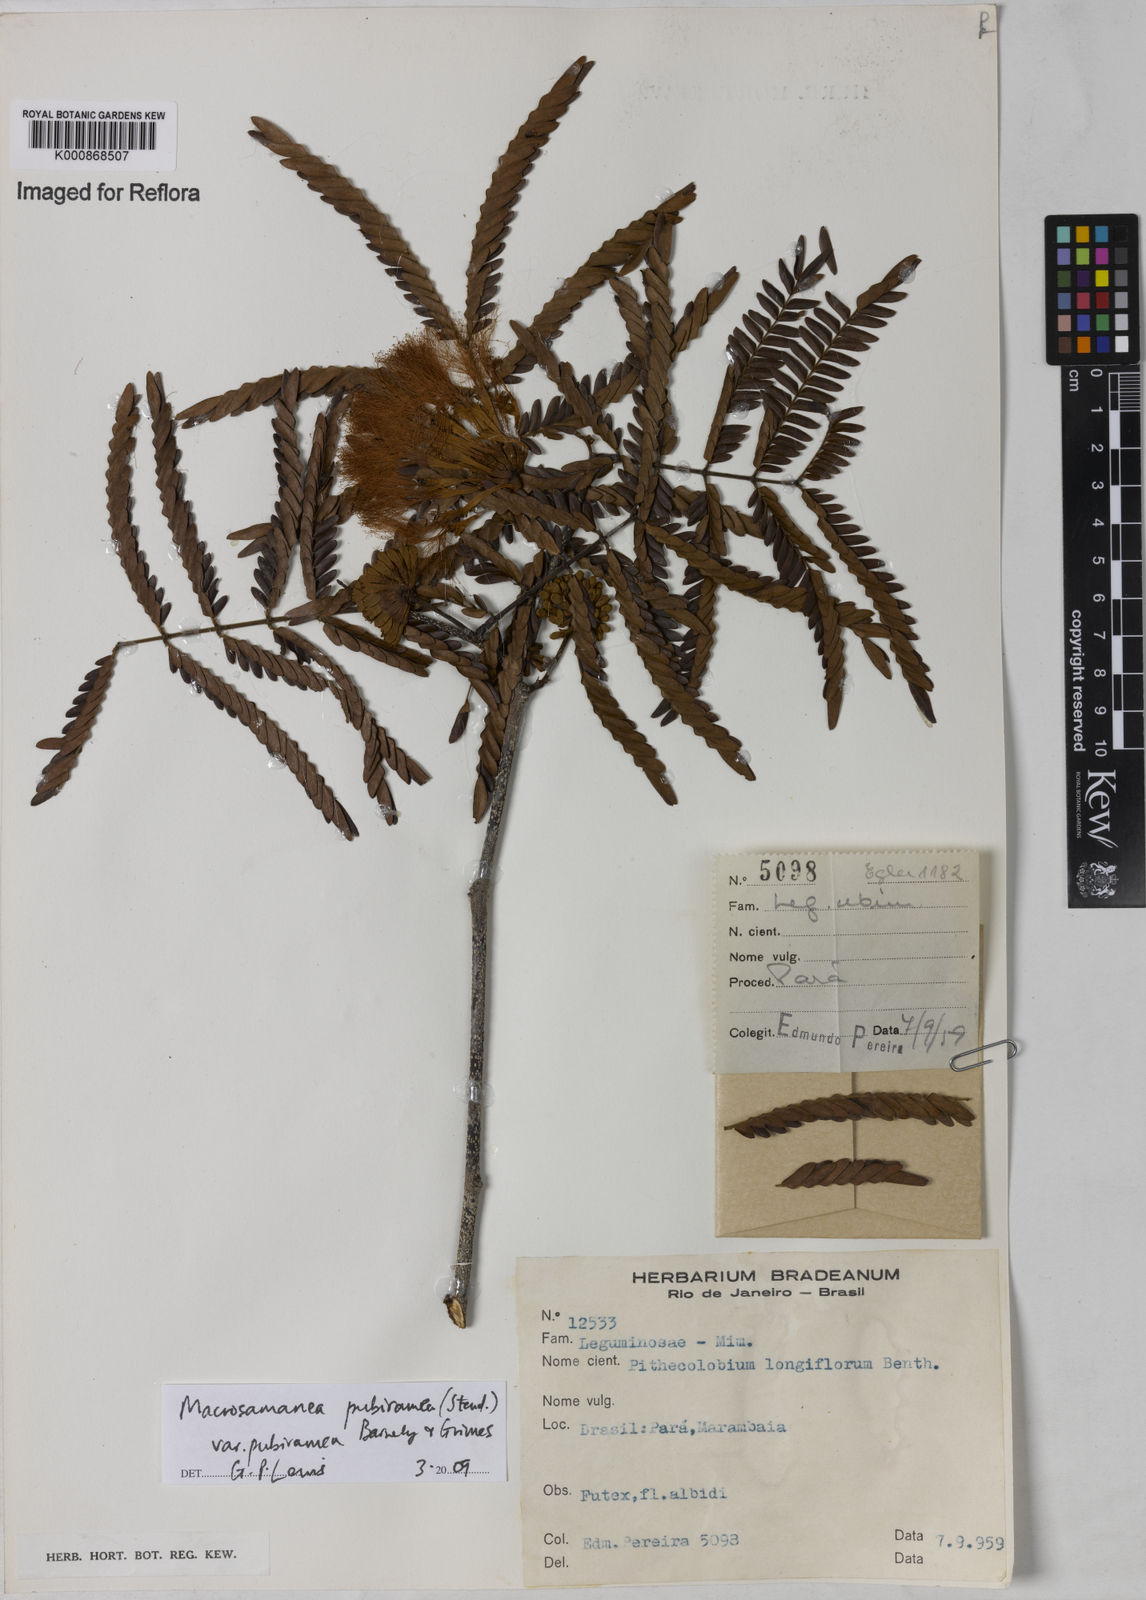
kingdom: Plantae
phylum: Tracheophyta
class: Magnoliopsida
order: Fabales
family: Fabaceae
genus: Macrosamanea
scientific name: Macrosamanea pubiramea
